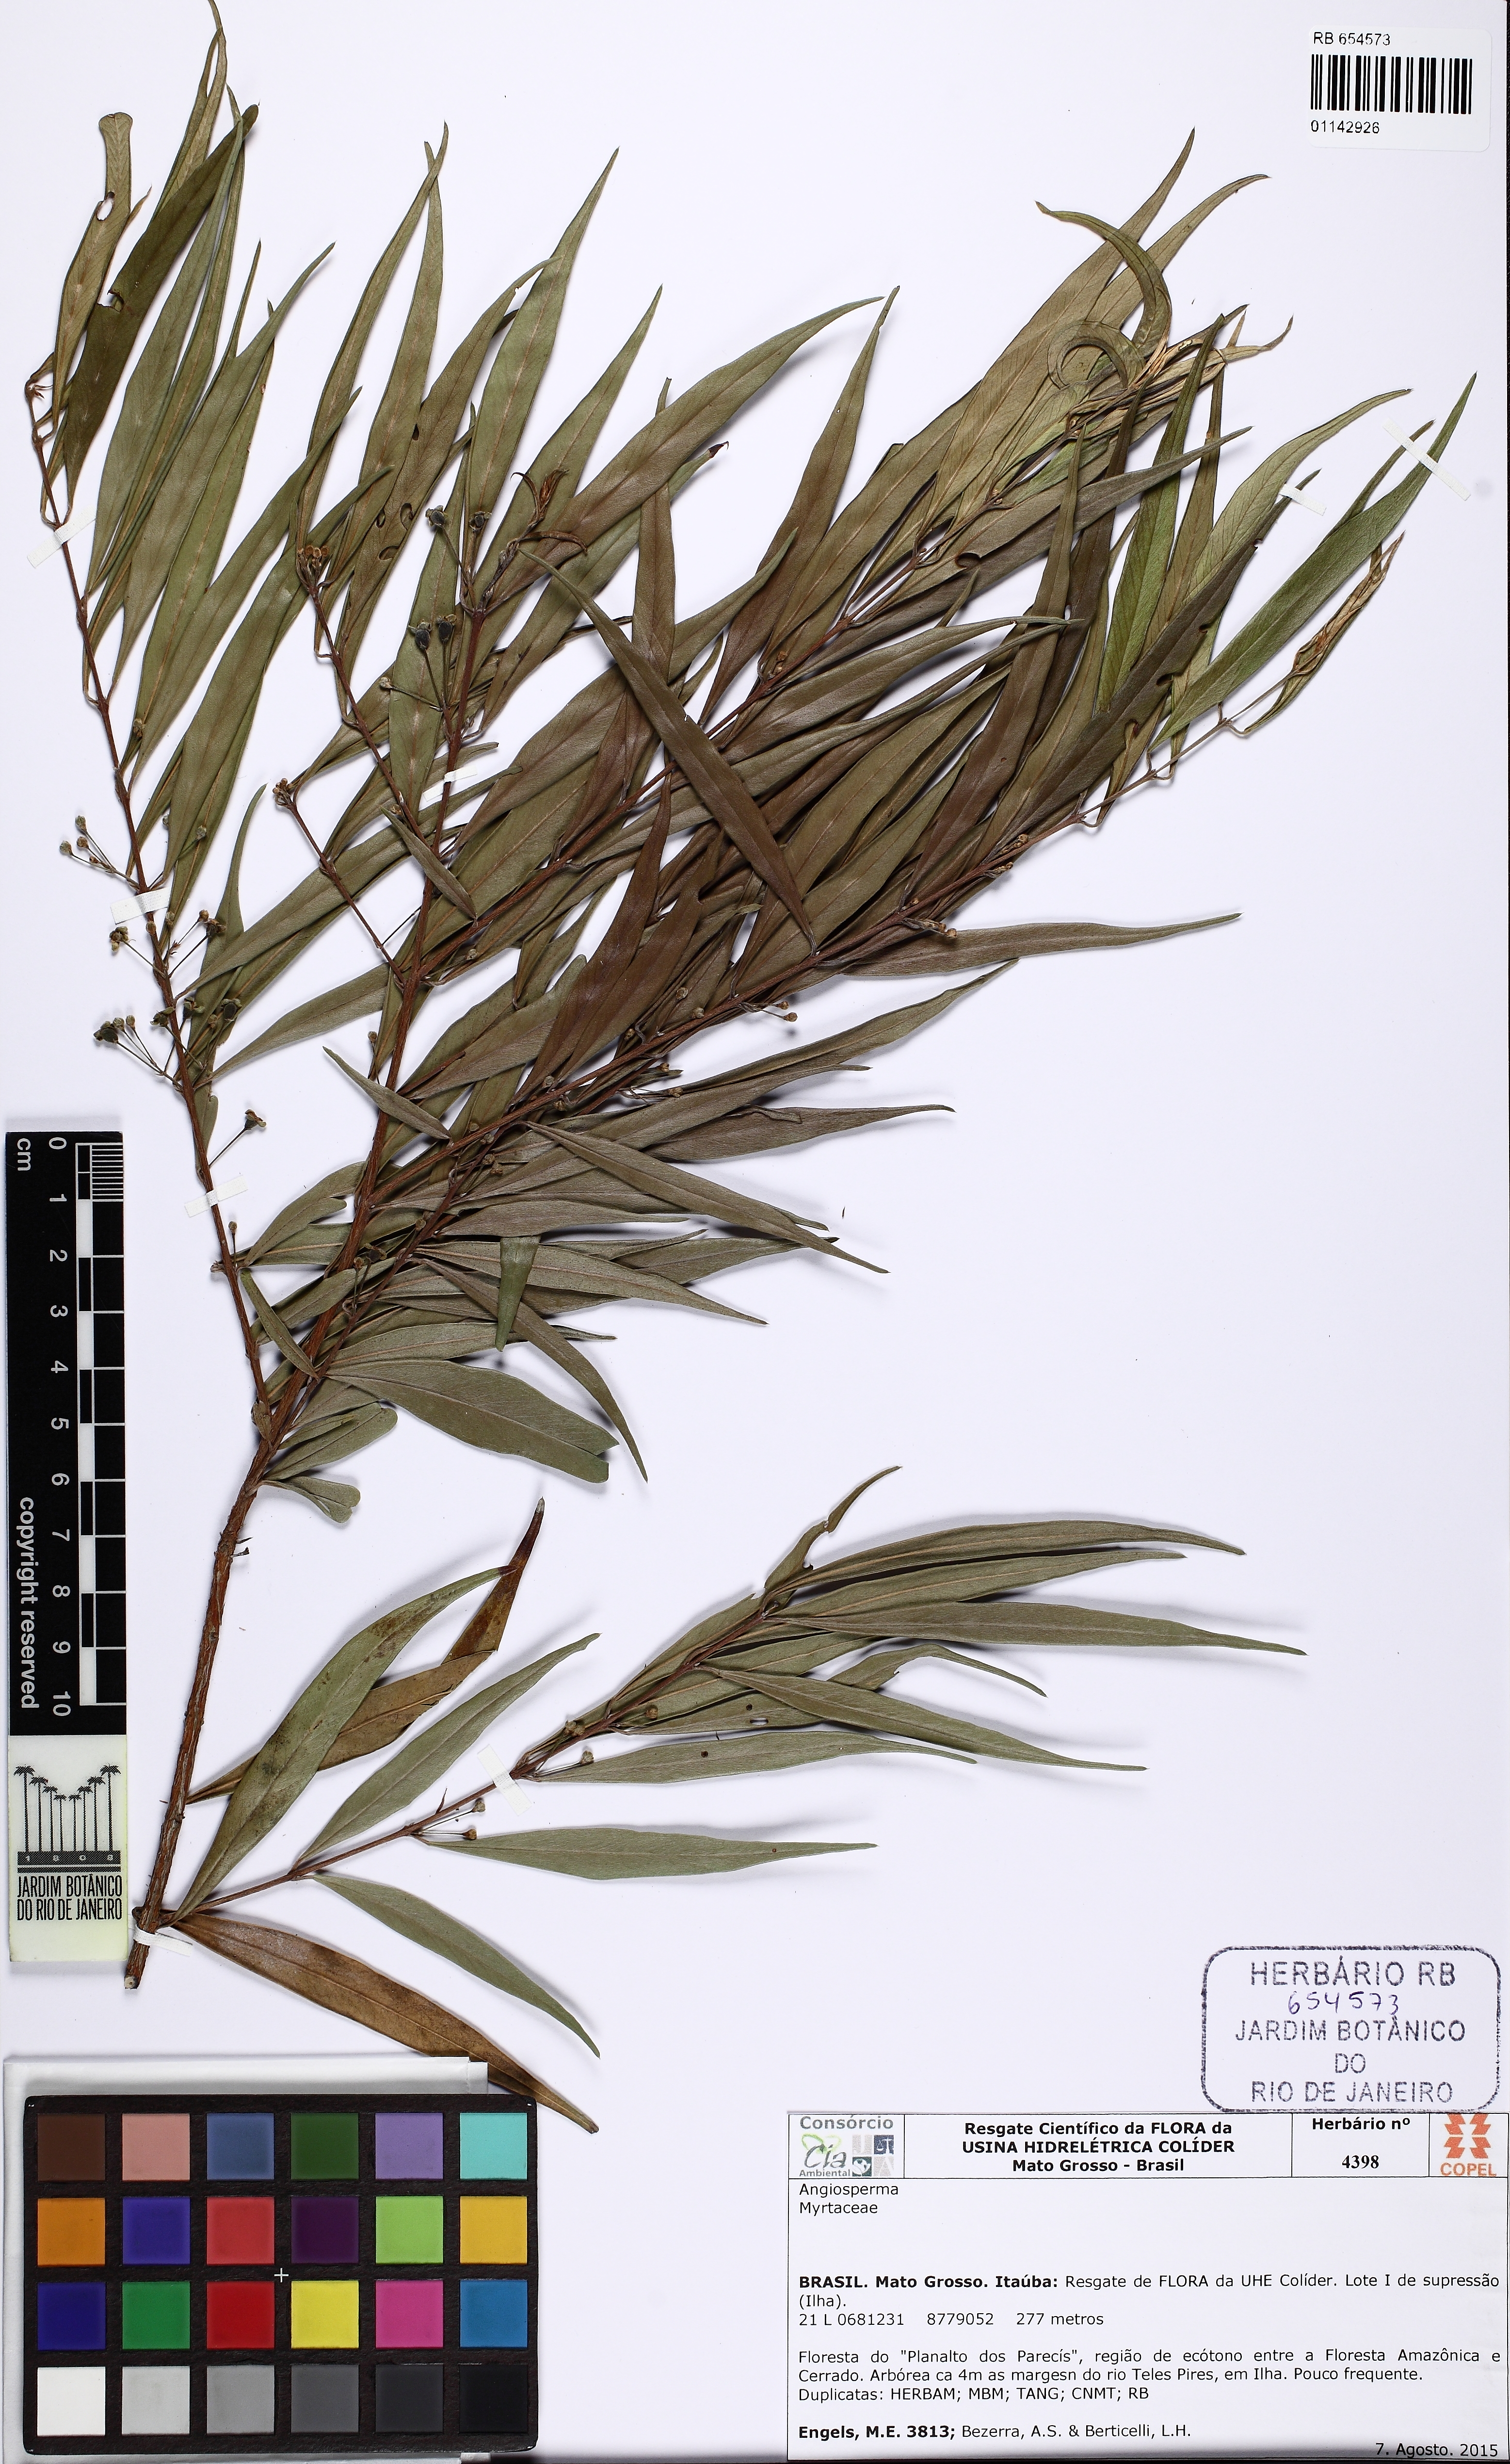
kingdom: Plantae
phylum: Tracheophyta
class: Magnoliopsida
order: Myrtales
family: Myrtaceae
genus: Eugenia
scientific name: Eugenia biflora
